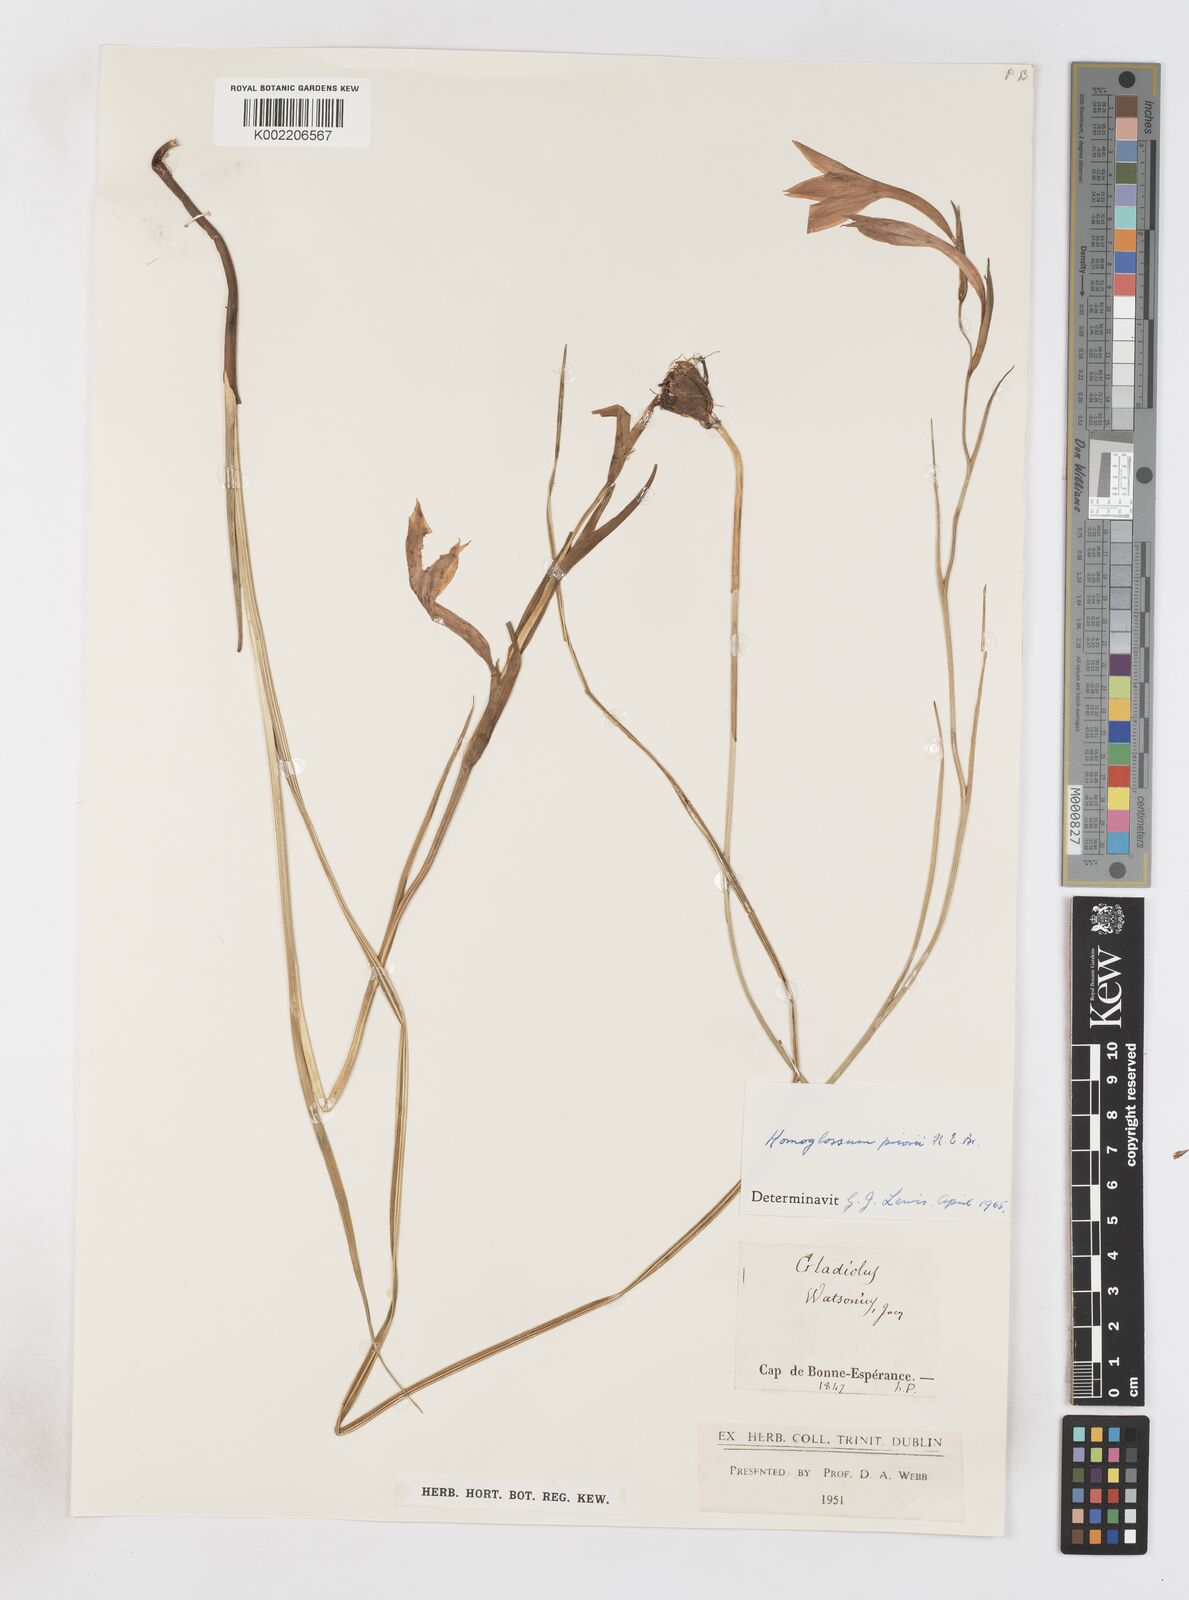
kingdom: Plantae
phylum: Tracheophyta
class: Liliopsida
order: Asparagales
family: Iridaceae
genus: Gladiolus
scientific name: Gladiolus priorii
